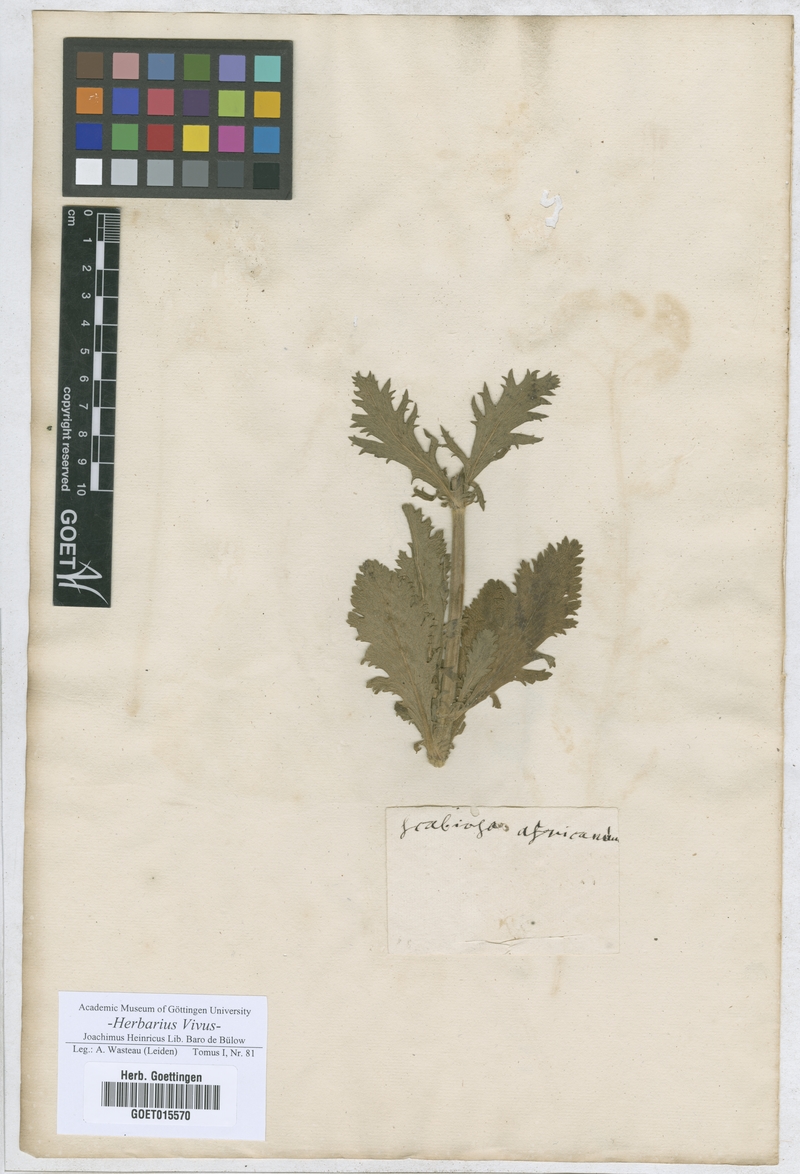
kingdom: Plantae
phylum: Tracheophyta
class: Magnoliopsida
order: Dipsacales
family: Caprifoliaceae
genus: Scabiosa
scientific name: Scabiosa africana
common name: Cape scabious
